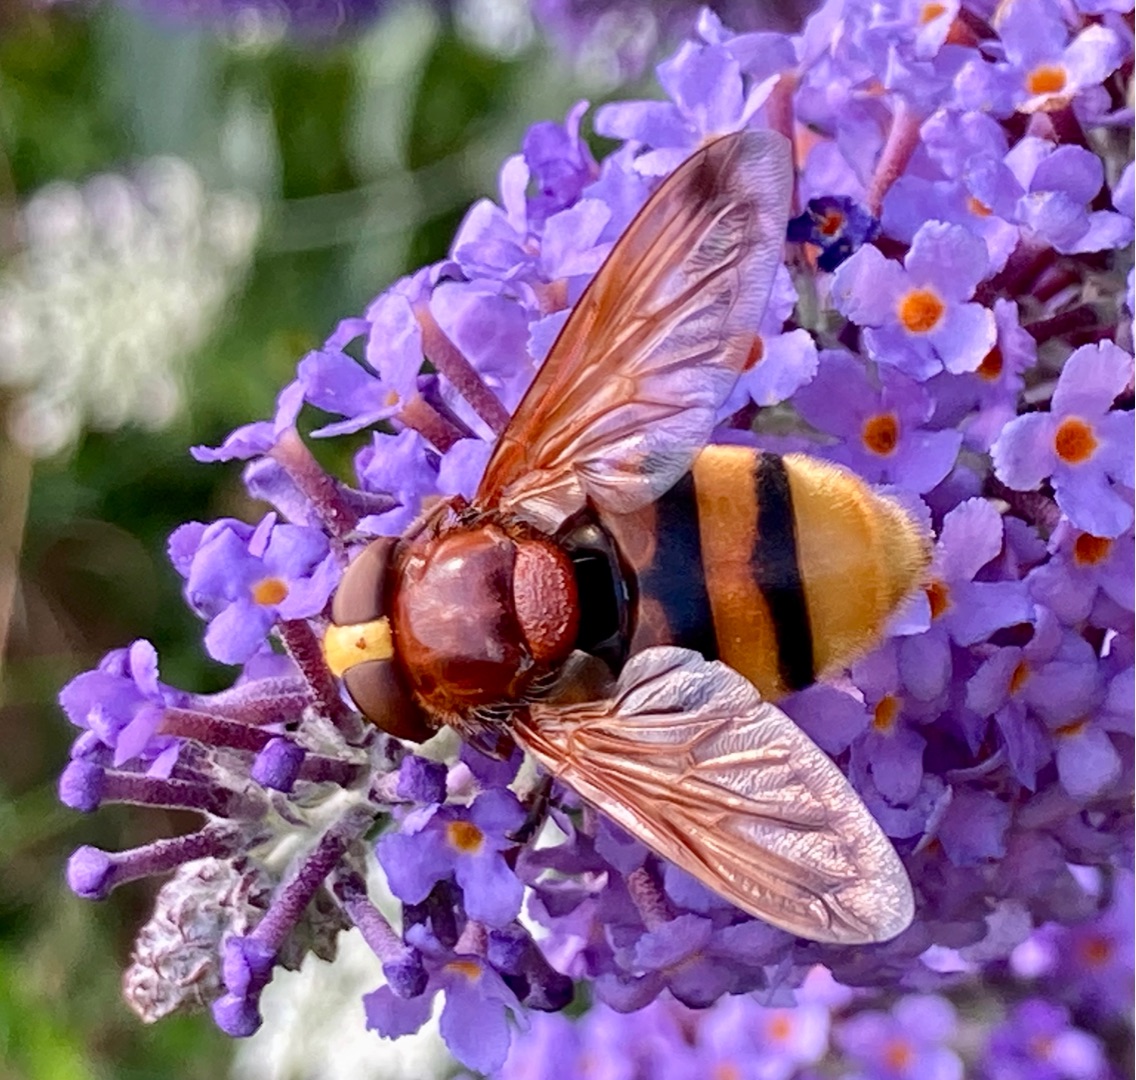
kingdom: Animalia
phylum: Arthropoda
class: Insecta
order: Diptera
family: Syrphidae
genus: Volucella
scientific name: Volucella zonaria
